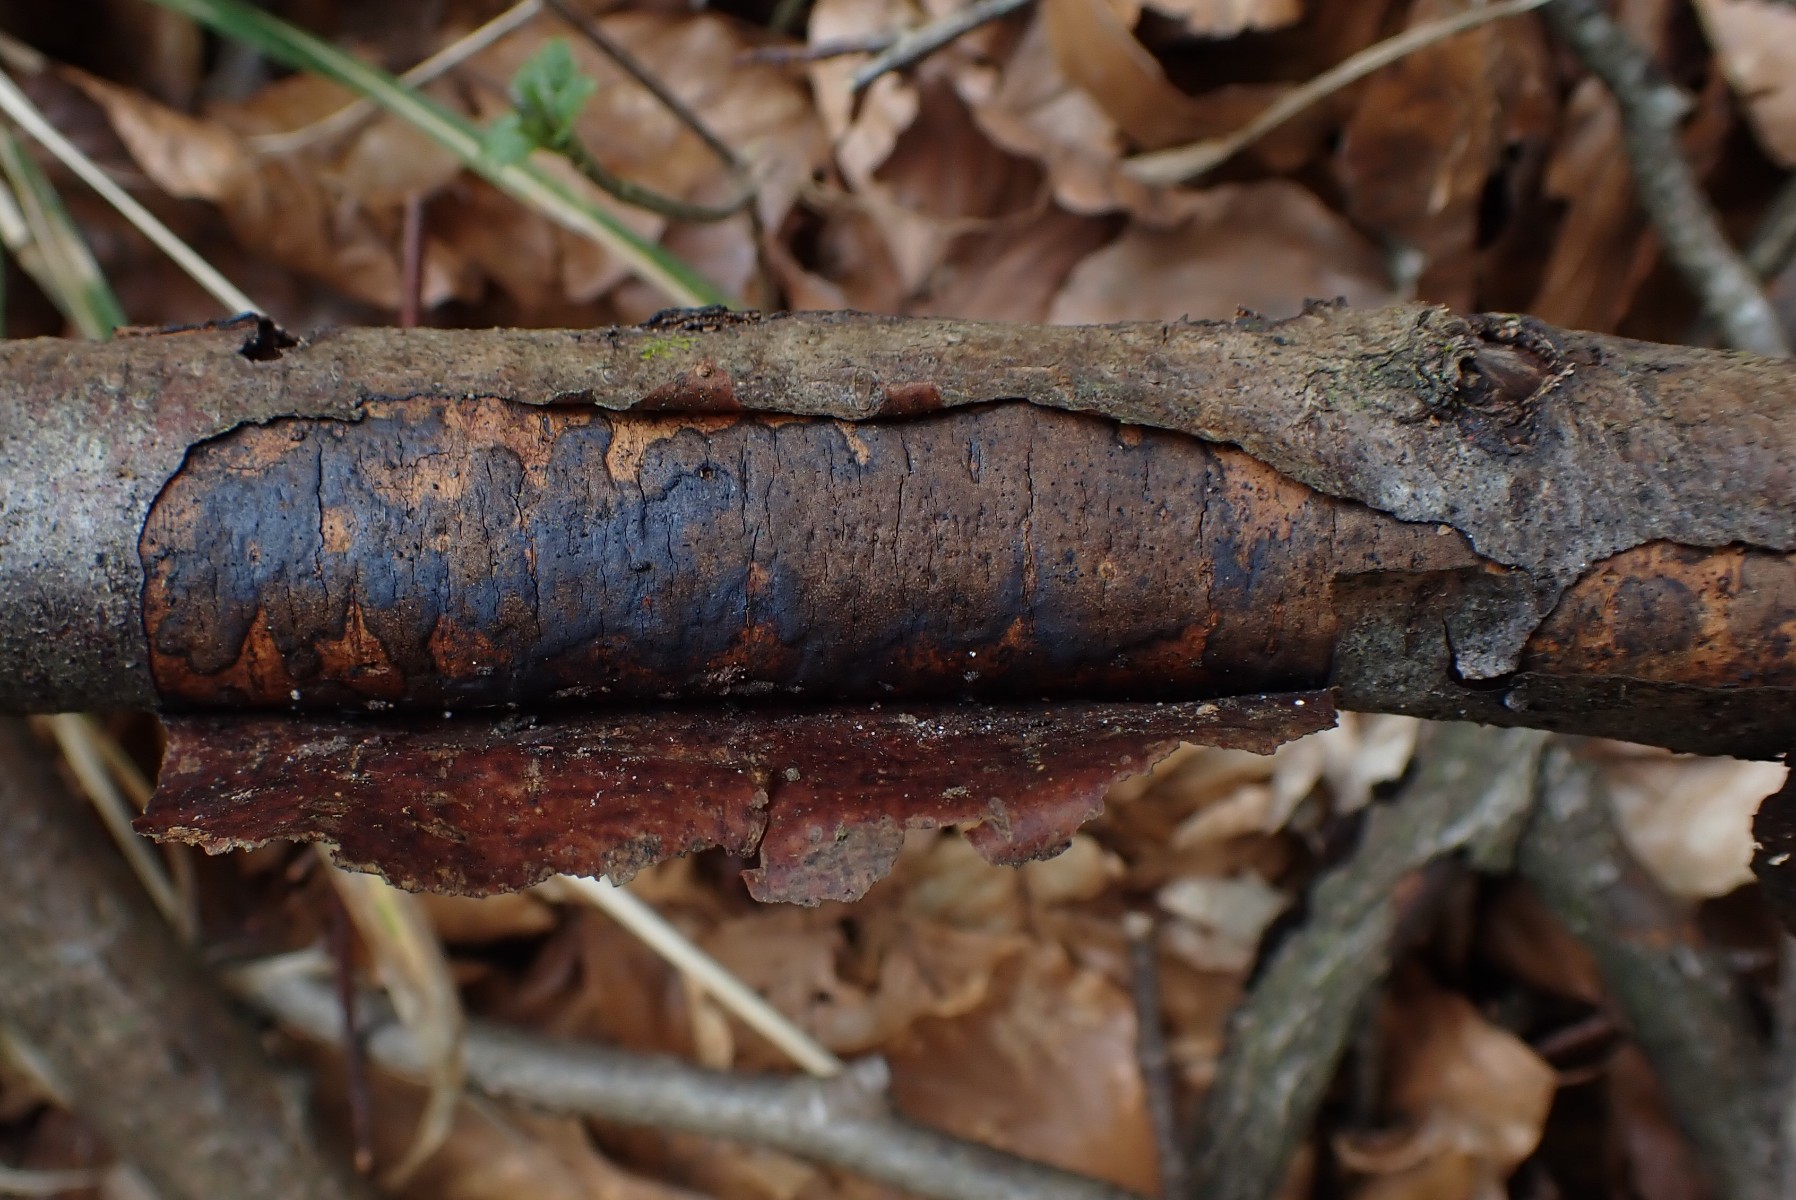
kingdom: Fungi
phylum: Ascomycota
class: Sordariomycetes
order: Xylariales
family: Diatrypaceae
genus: Diatrype
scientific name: Diatrype decorticata
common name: barksprænger-kulskorpe
